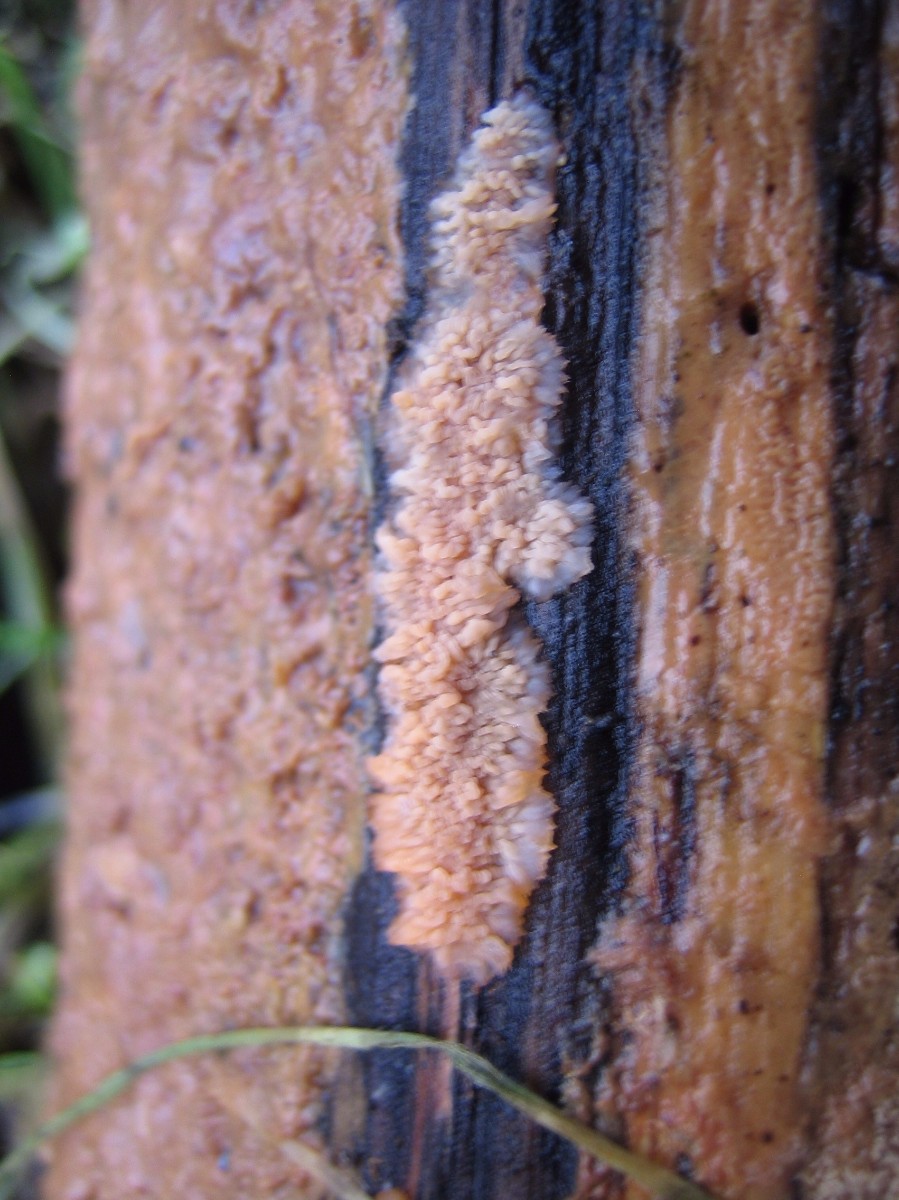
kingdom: Fungi
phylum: Basidiomycota
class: Agaricomycetes
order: Polyporales
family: Meruliaceae
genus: Phlebia
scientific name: Phlebia radiata
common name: stråle-åresvamp
